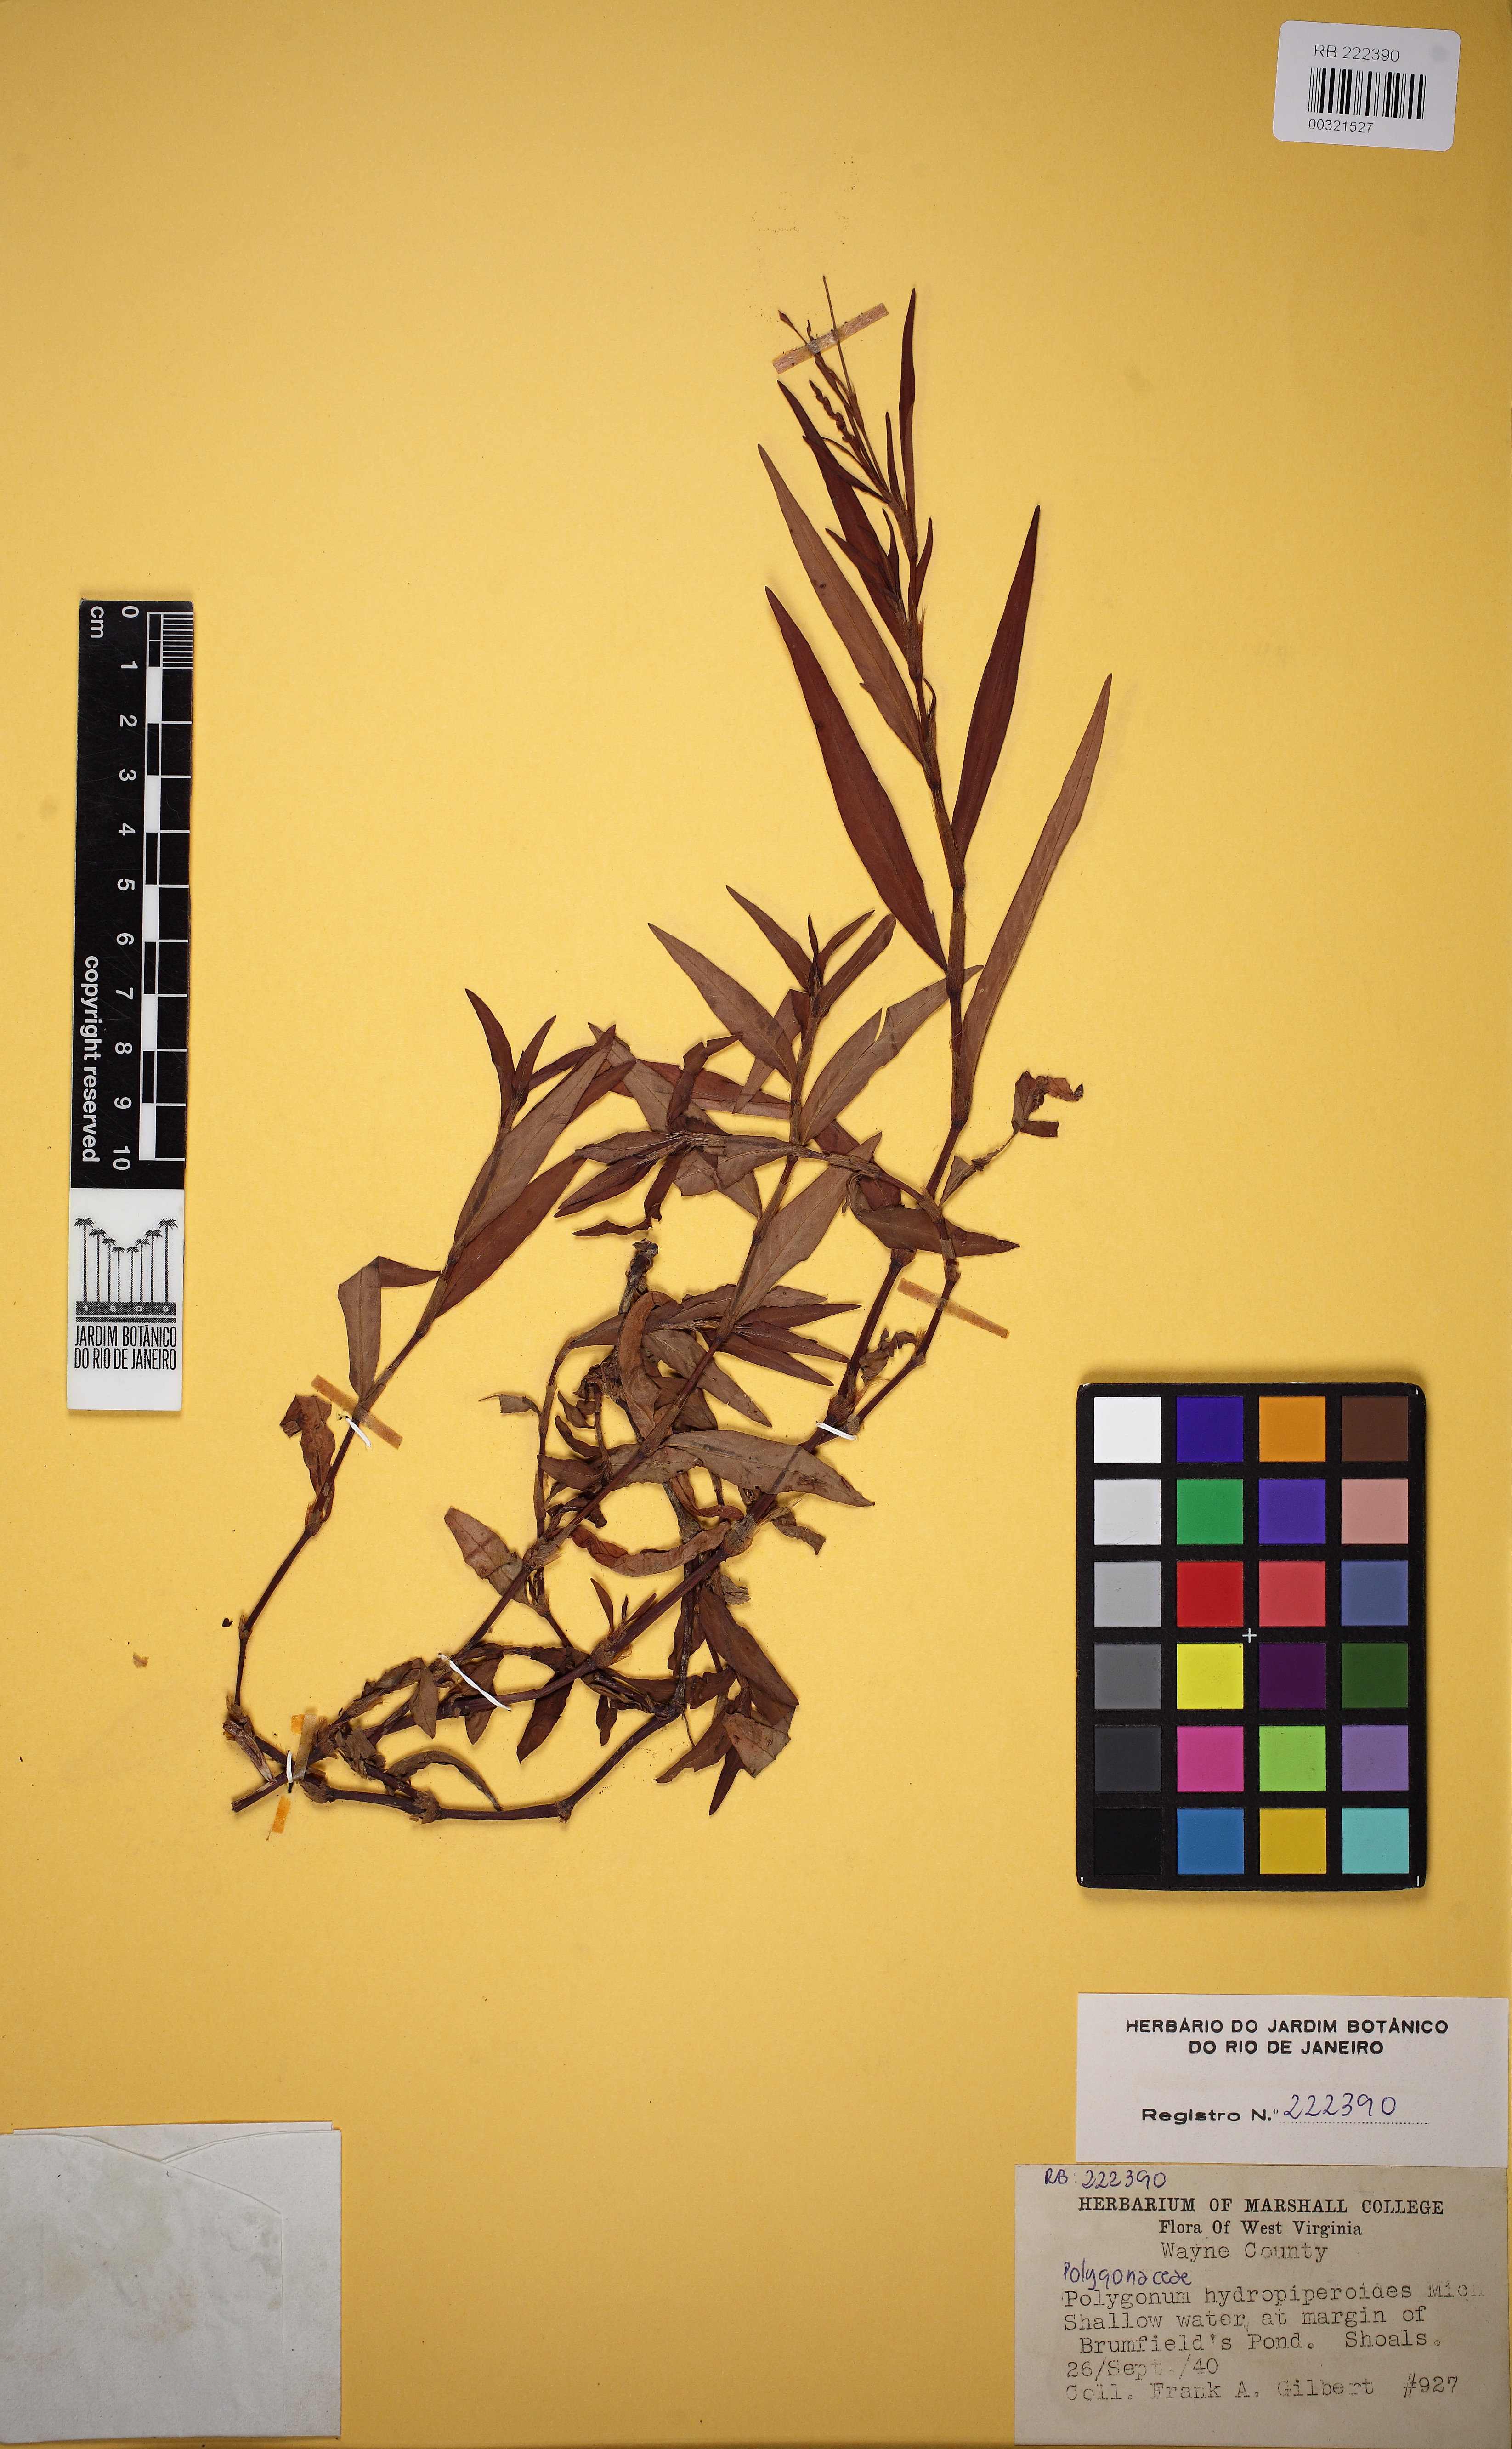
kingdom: Plantae
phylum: Tracheophyta
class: Magnoliopsida
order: Caryophyllales
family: Polygonaceae
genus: Persicaria
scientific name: Persicaria hydropiperoides
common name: Swamp smartweed
